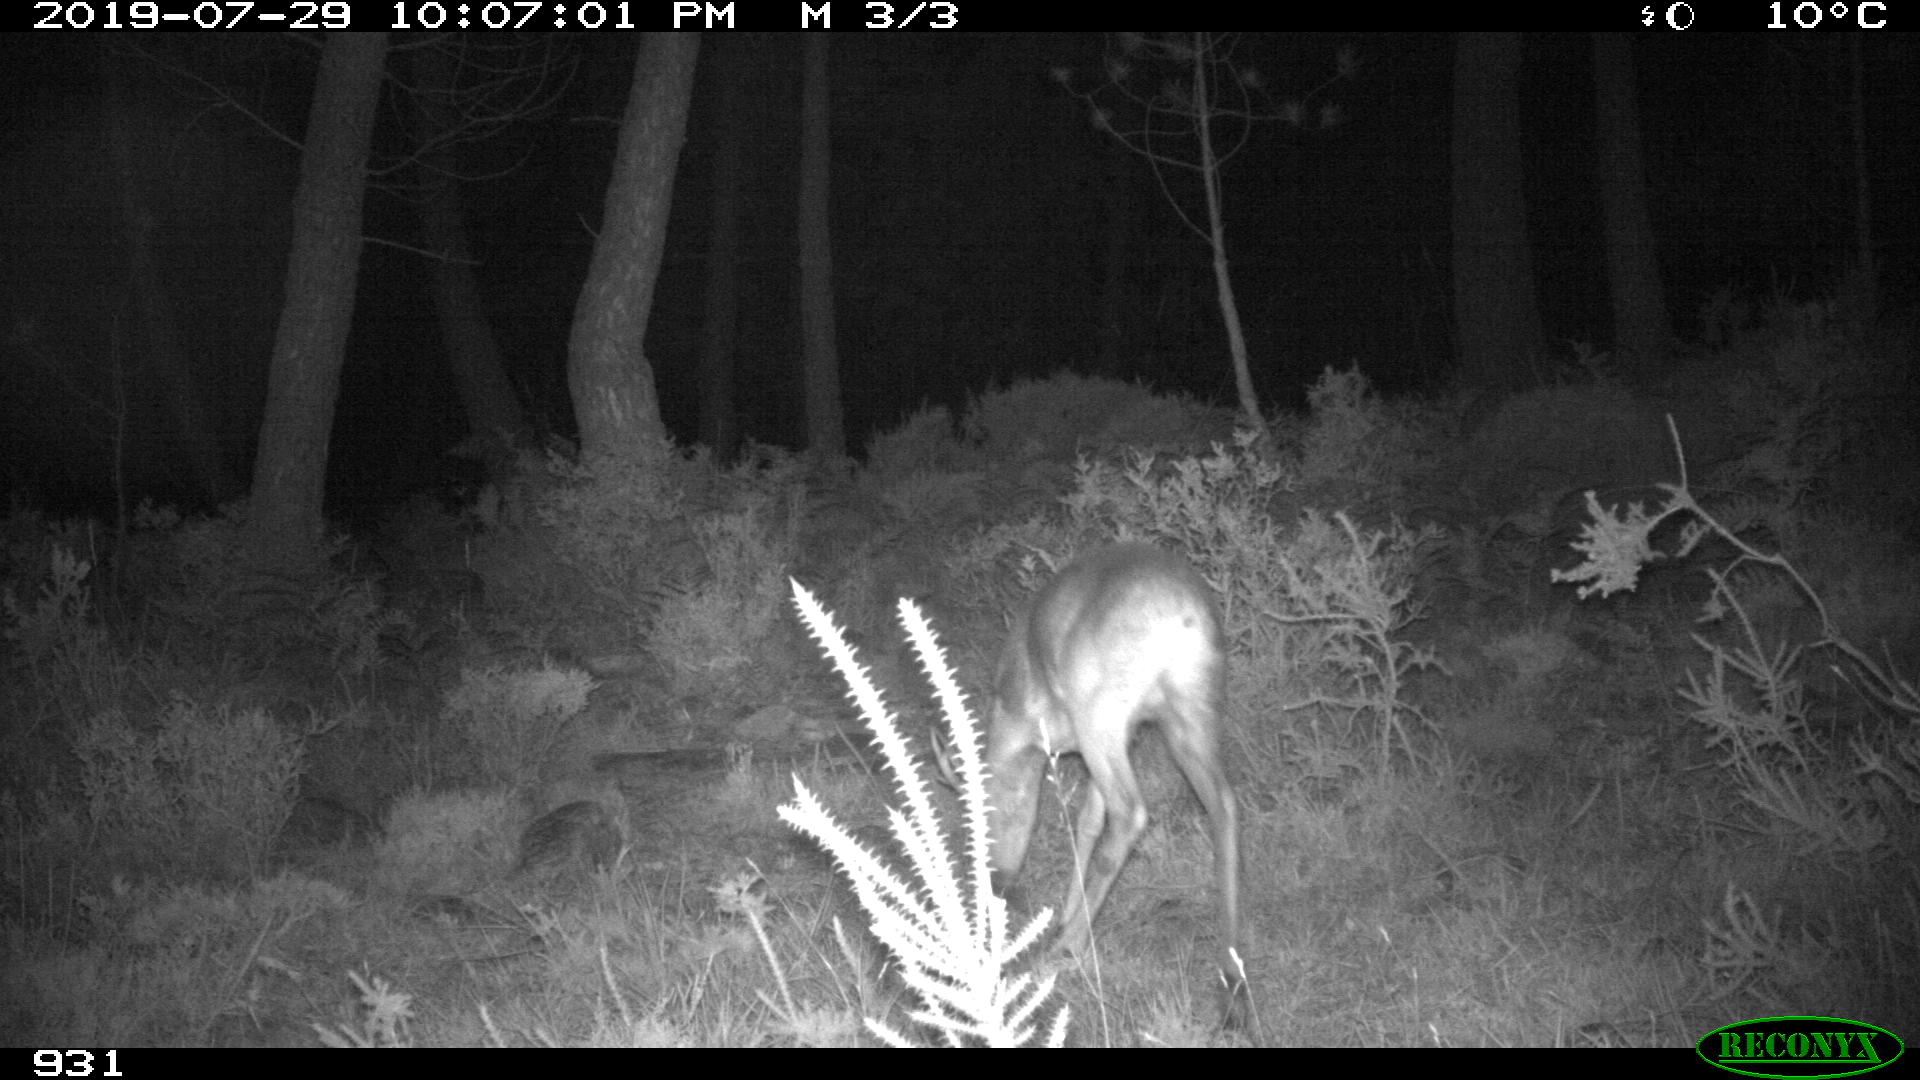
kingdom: Animalia
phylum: Chordata
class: Mammalia
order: Artiodactyla
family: Cervidae
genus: Capreolus
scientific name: Capreolus capreolus
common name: Western roe deer
